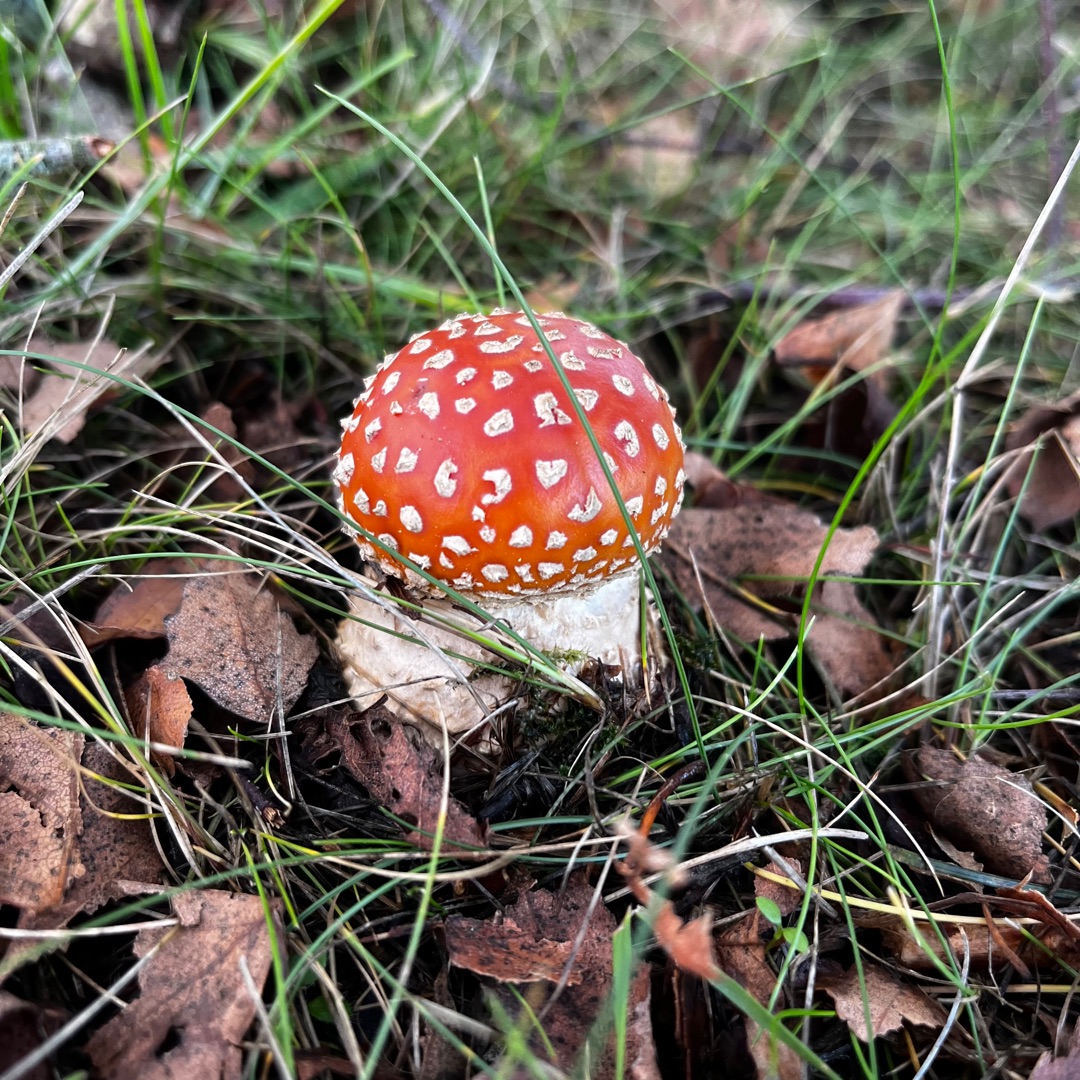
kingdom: Fungi
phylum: Basidiomycota
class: Agaricomycetes
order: Agaricales
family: Amanitaceae
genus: Amanita
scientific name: Amanita muscaria
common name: Rød fluesvamp
